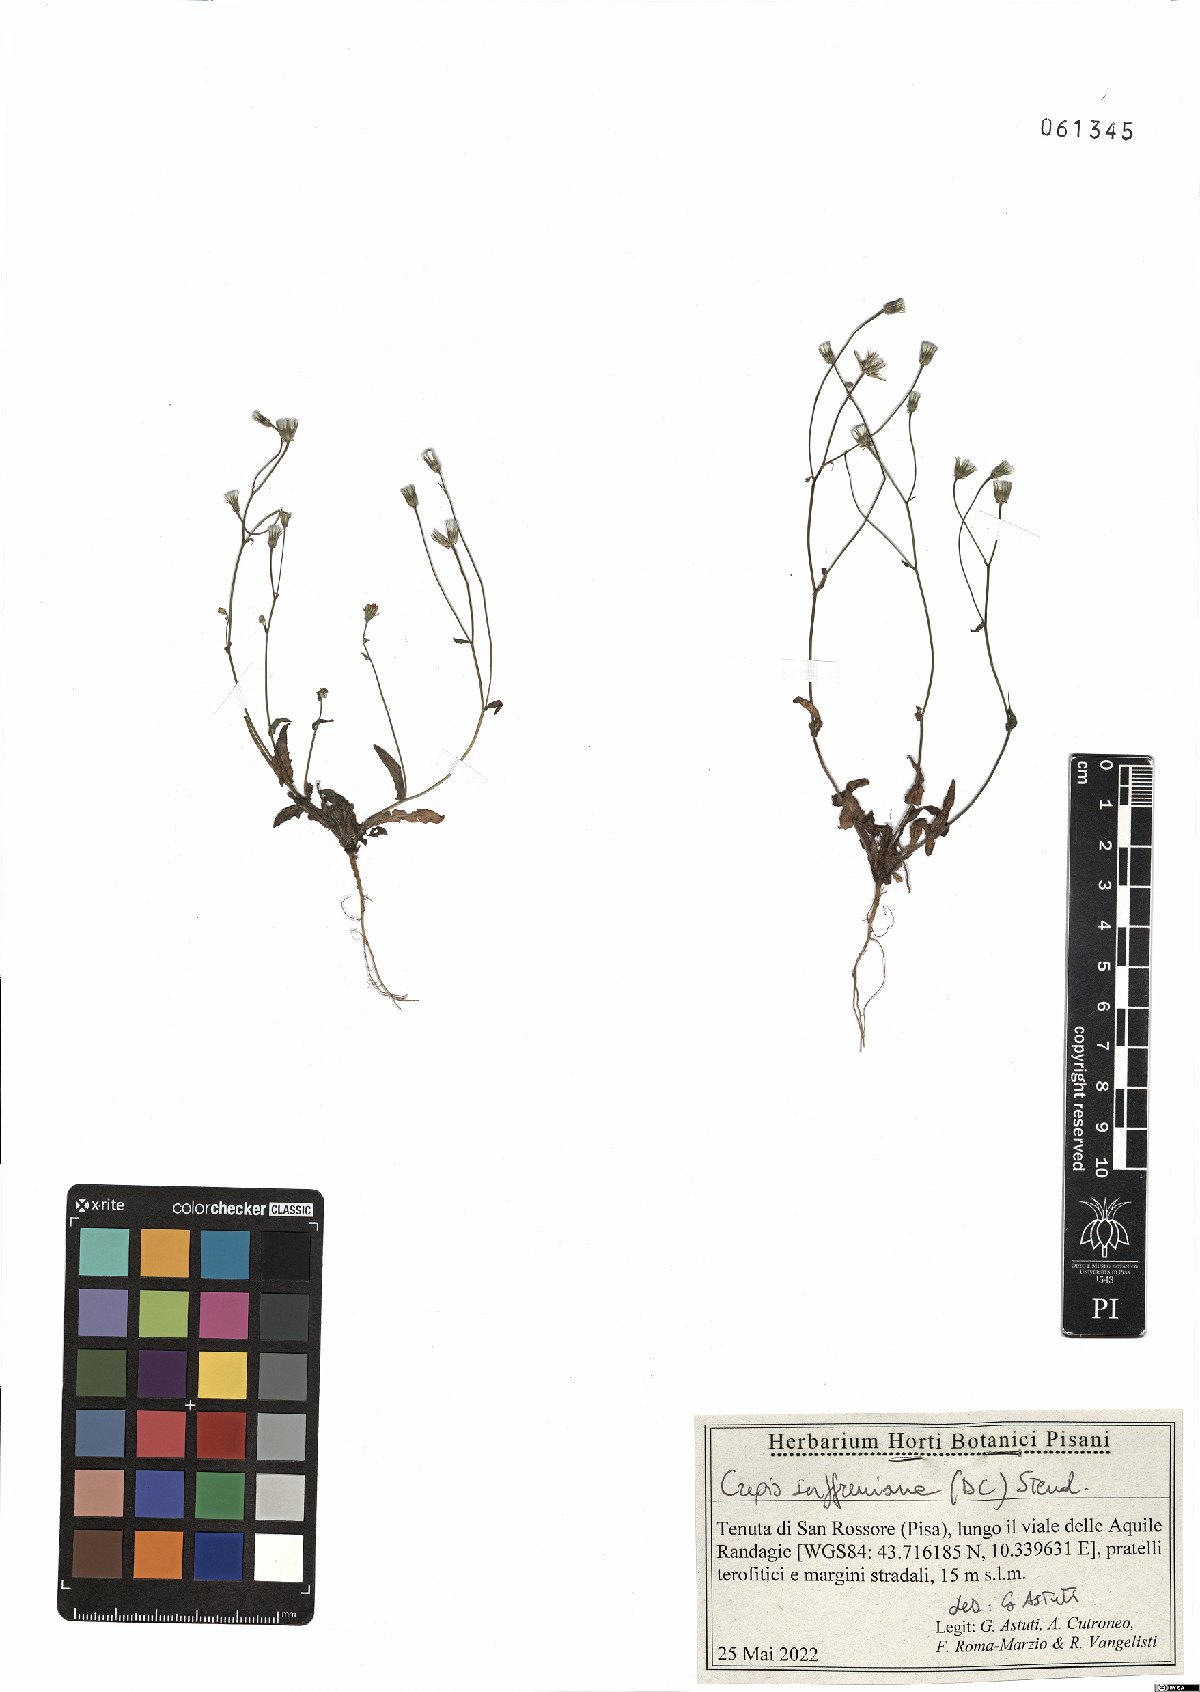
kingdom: Plantae
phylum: Tracheophyta
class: Magnoliopsida
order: Asterales
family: Asteraceae
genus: Crepis
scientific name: Crepis suffreniana
